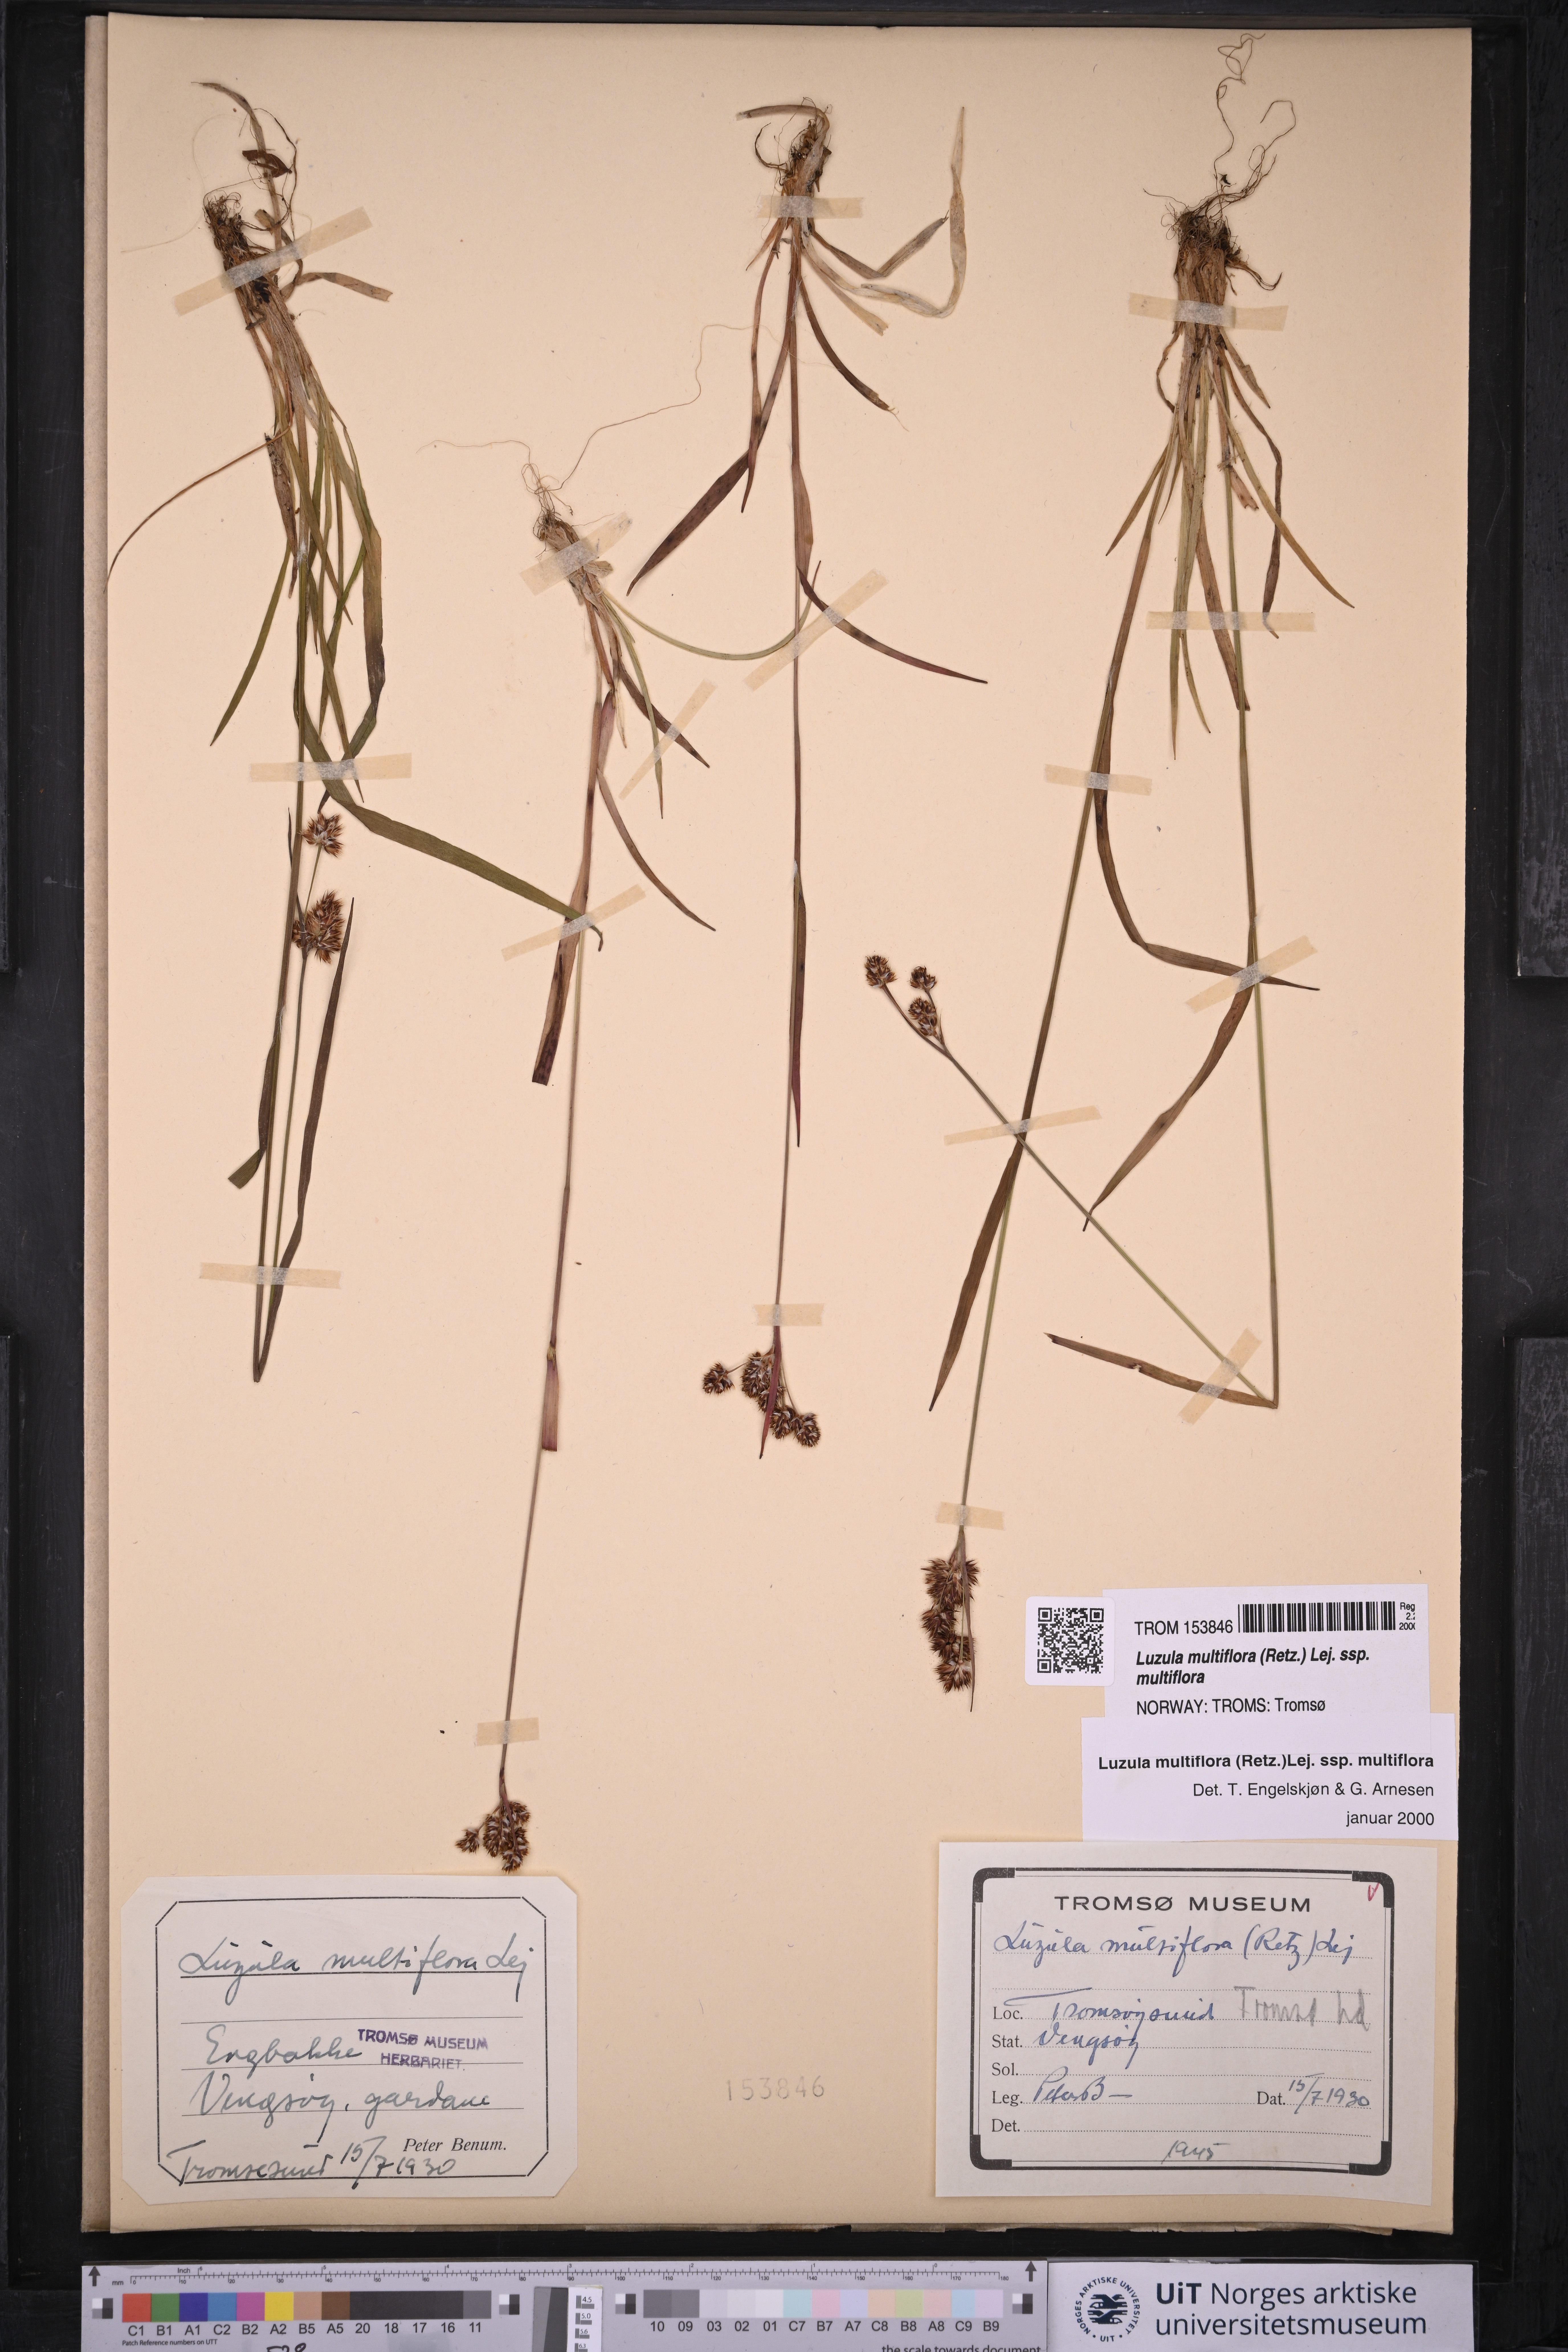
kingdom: Plantae
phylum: Tracheophyta
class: Liliopsida
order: Poales
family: Juncaceae
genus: Luzula
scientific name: Luzula multiflora
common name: Heath wood-rush
